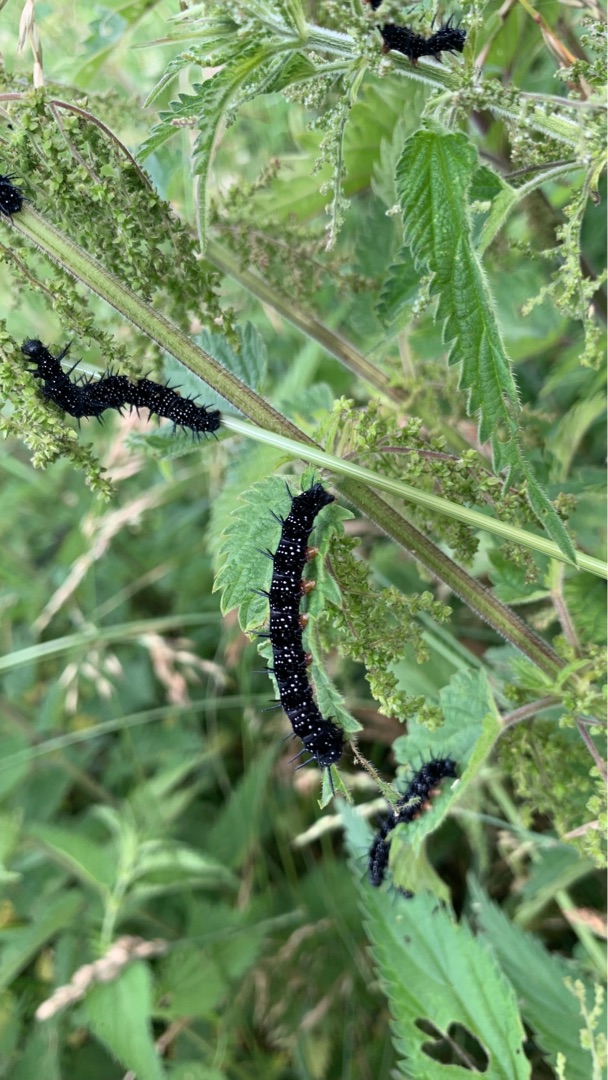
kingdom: Animalia
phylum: Arthropoda
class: Insecta
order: Lepidoptera
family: Nymphalidae
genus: Aglais
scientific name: Aglais io
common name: Dagpåfugleøje
